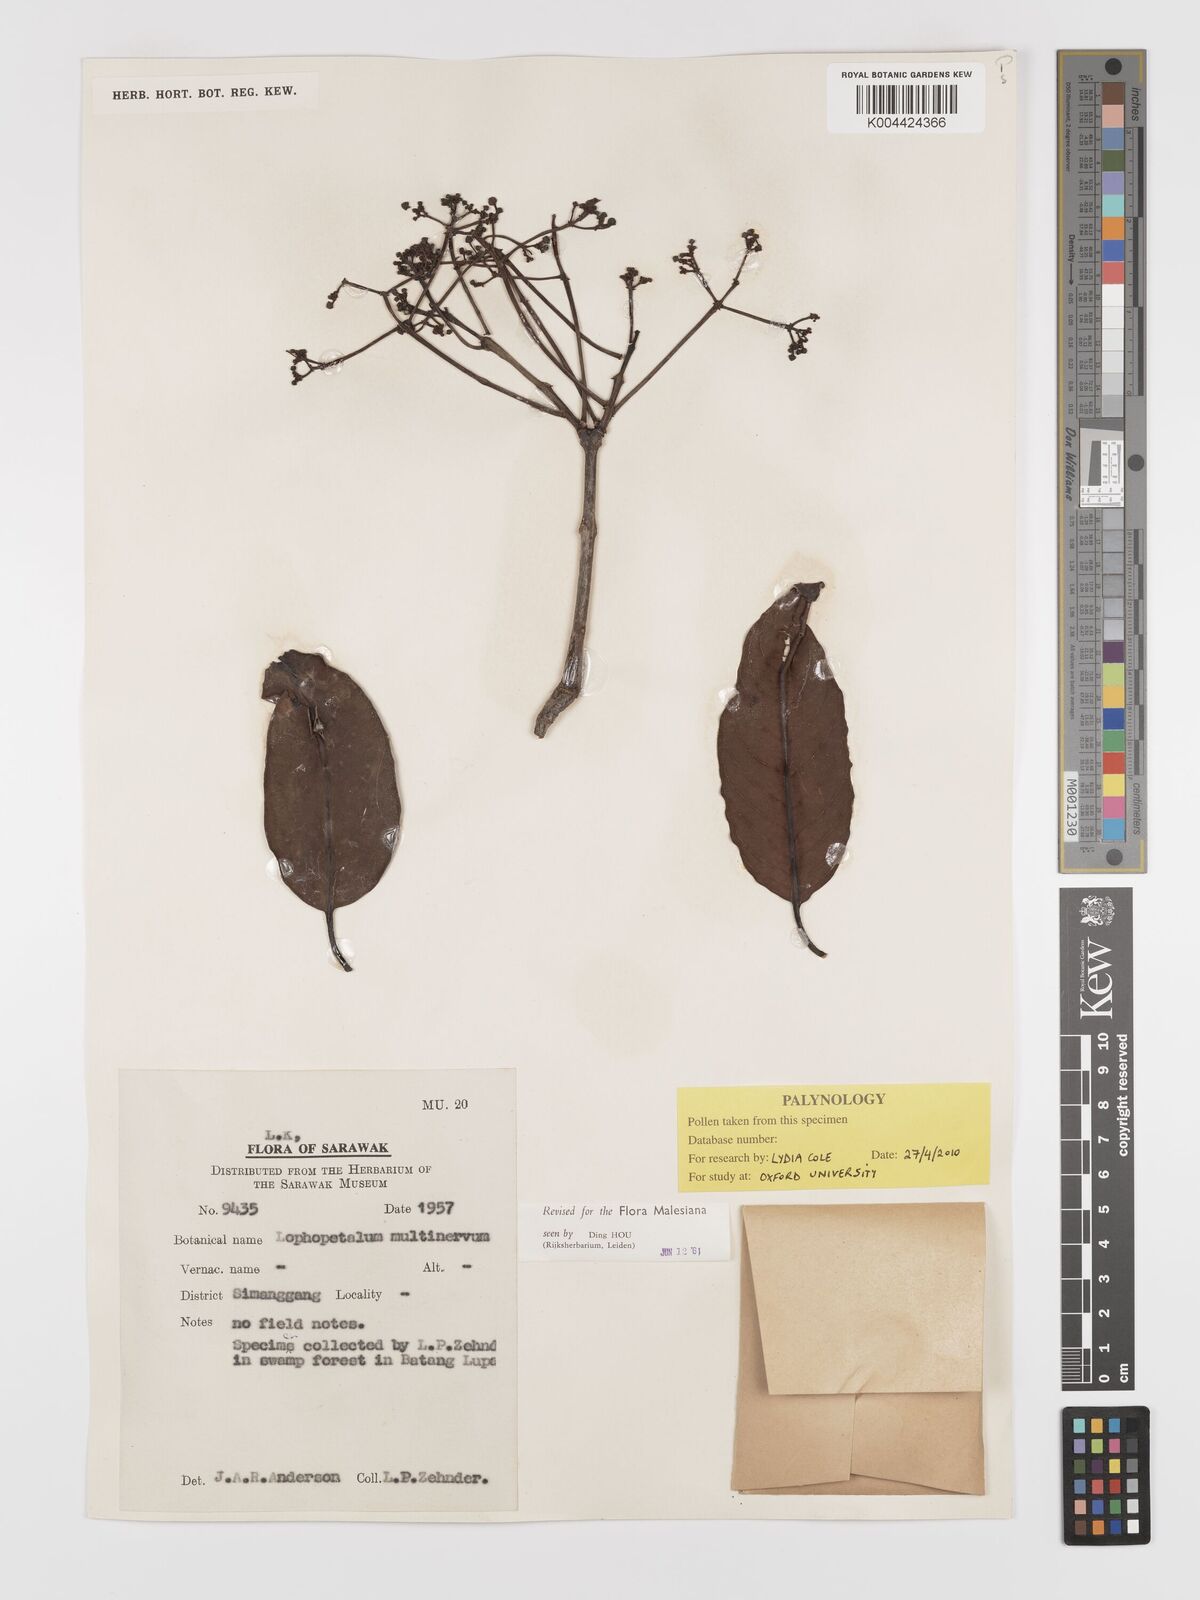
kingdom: Plantae
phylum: Tracheophyta
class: Magnoliopsida
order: Celastrales
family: Celastraceae
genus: Lophopetalum
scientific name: Lophopetalum multinervium
